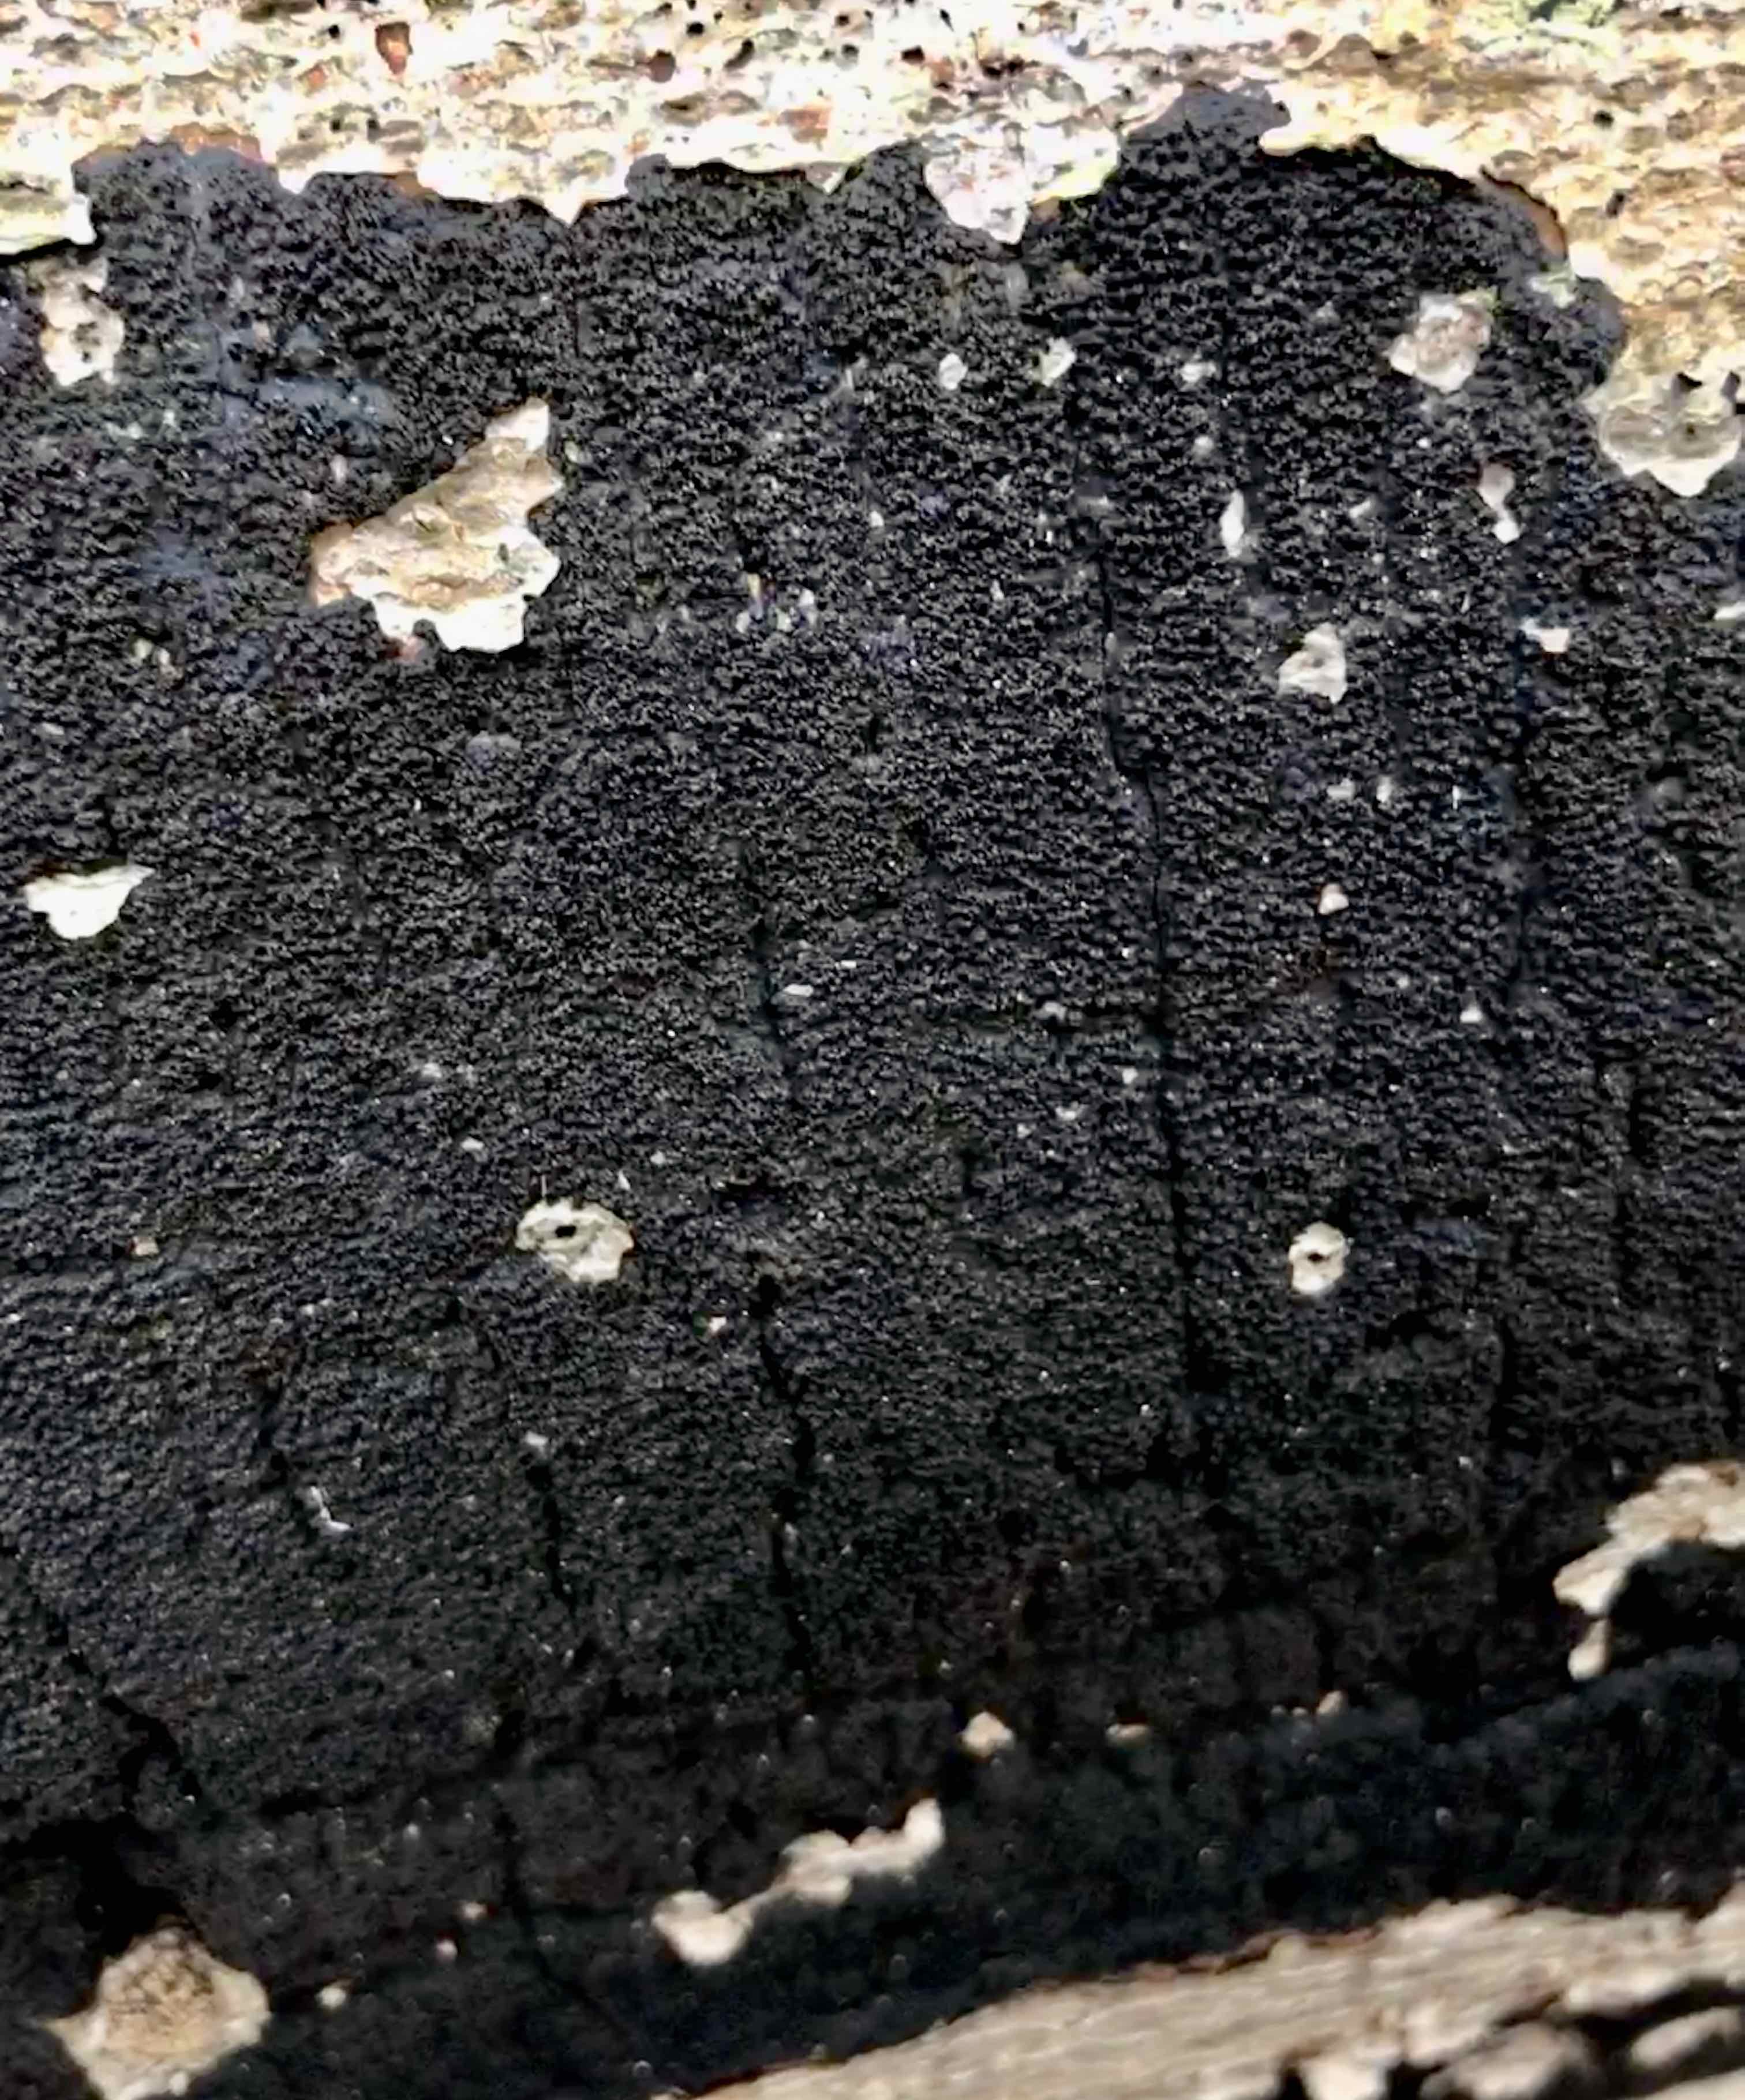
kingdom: Fungi
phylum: Ascomycota
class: Sordariomycetes
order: Xylariales
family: Diatrypaceae
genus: Eutypa
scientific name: Eutypa spinosa
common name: grov kulskorpe
